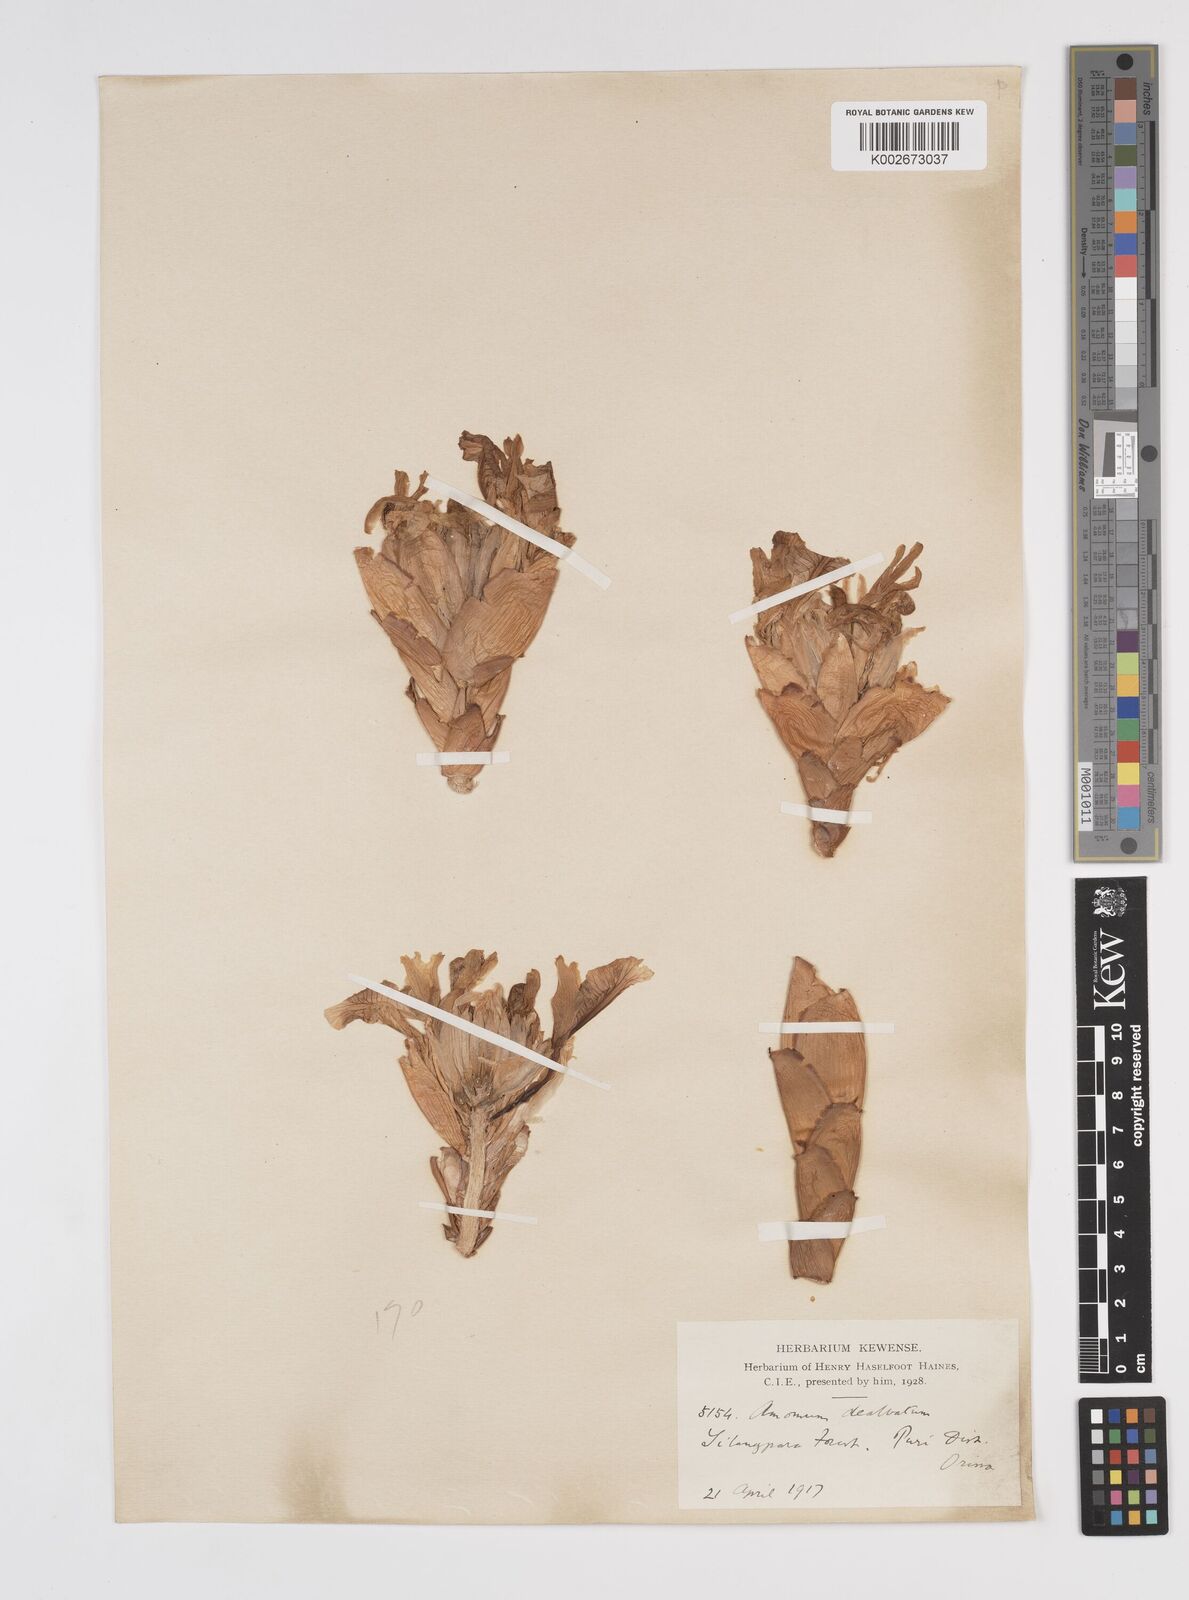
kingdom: Plantae
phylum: Tracheophyta
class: Liliopsida
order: Zingiberales
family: Zingiberaceae
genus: Amomum
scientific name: Amomum dealbatum
